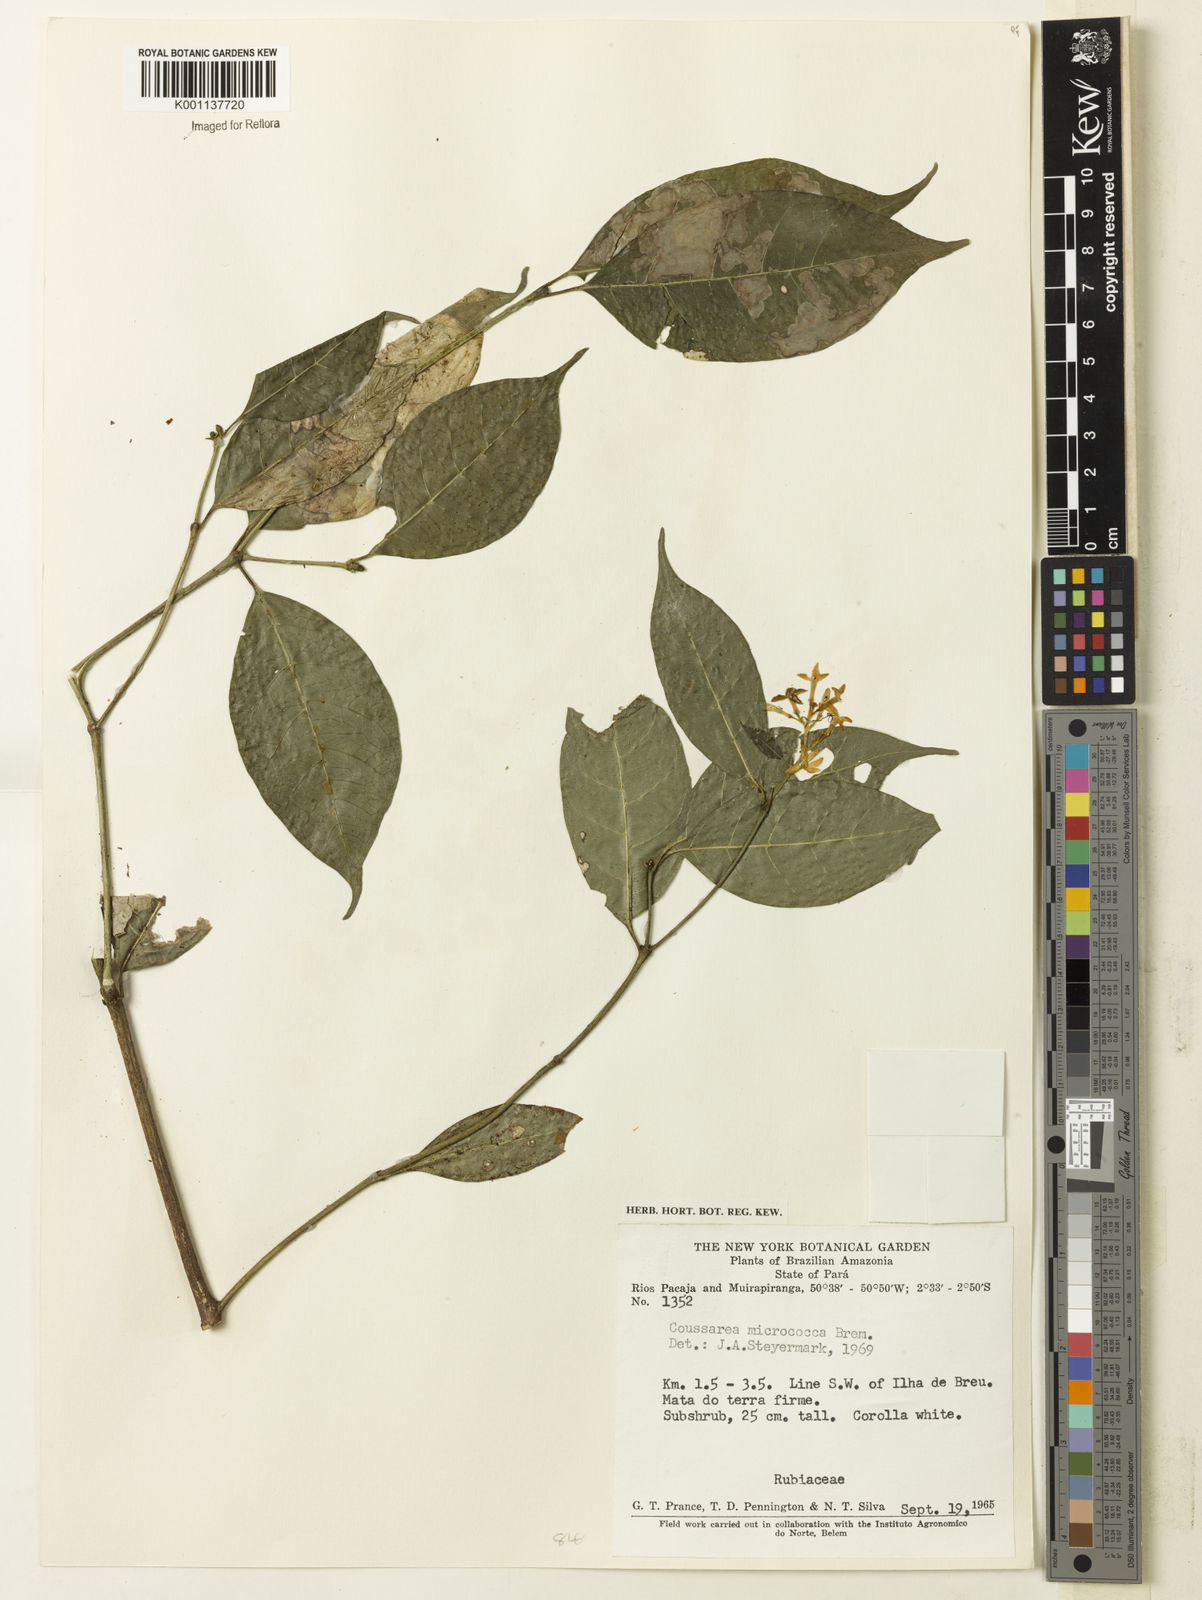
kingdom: Plantae
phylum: Tracheophyta
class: Magnoliopsida
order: Gentianales
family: Rubiaceae
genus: Coussarea
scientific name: Coussarea micrococca
